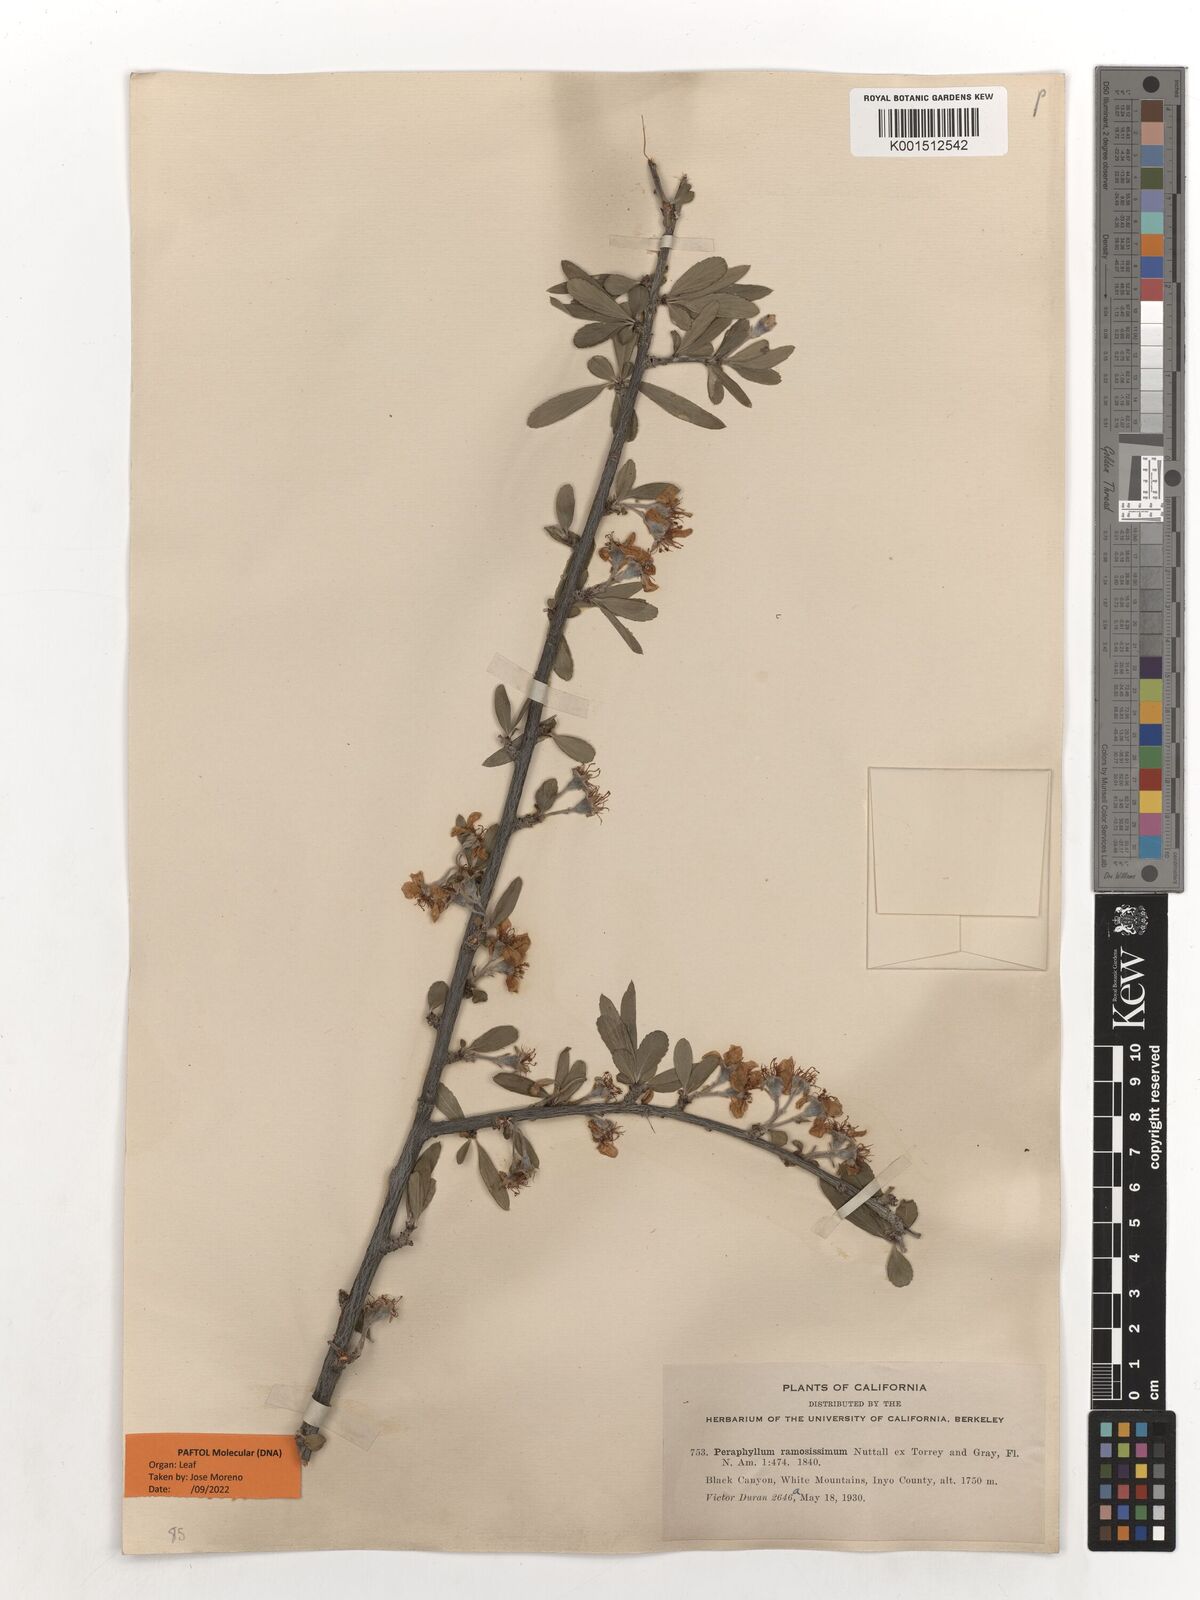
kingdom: Plantae
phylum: Tracheophyta
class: Magnoliopsida
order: Rosales
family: Rosaceae
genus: Amelanchier
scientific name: Amelanchier ramosissima
